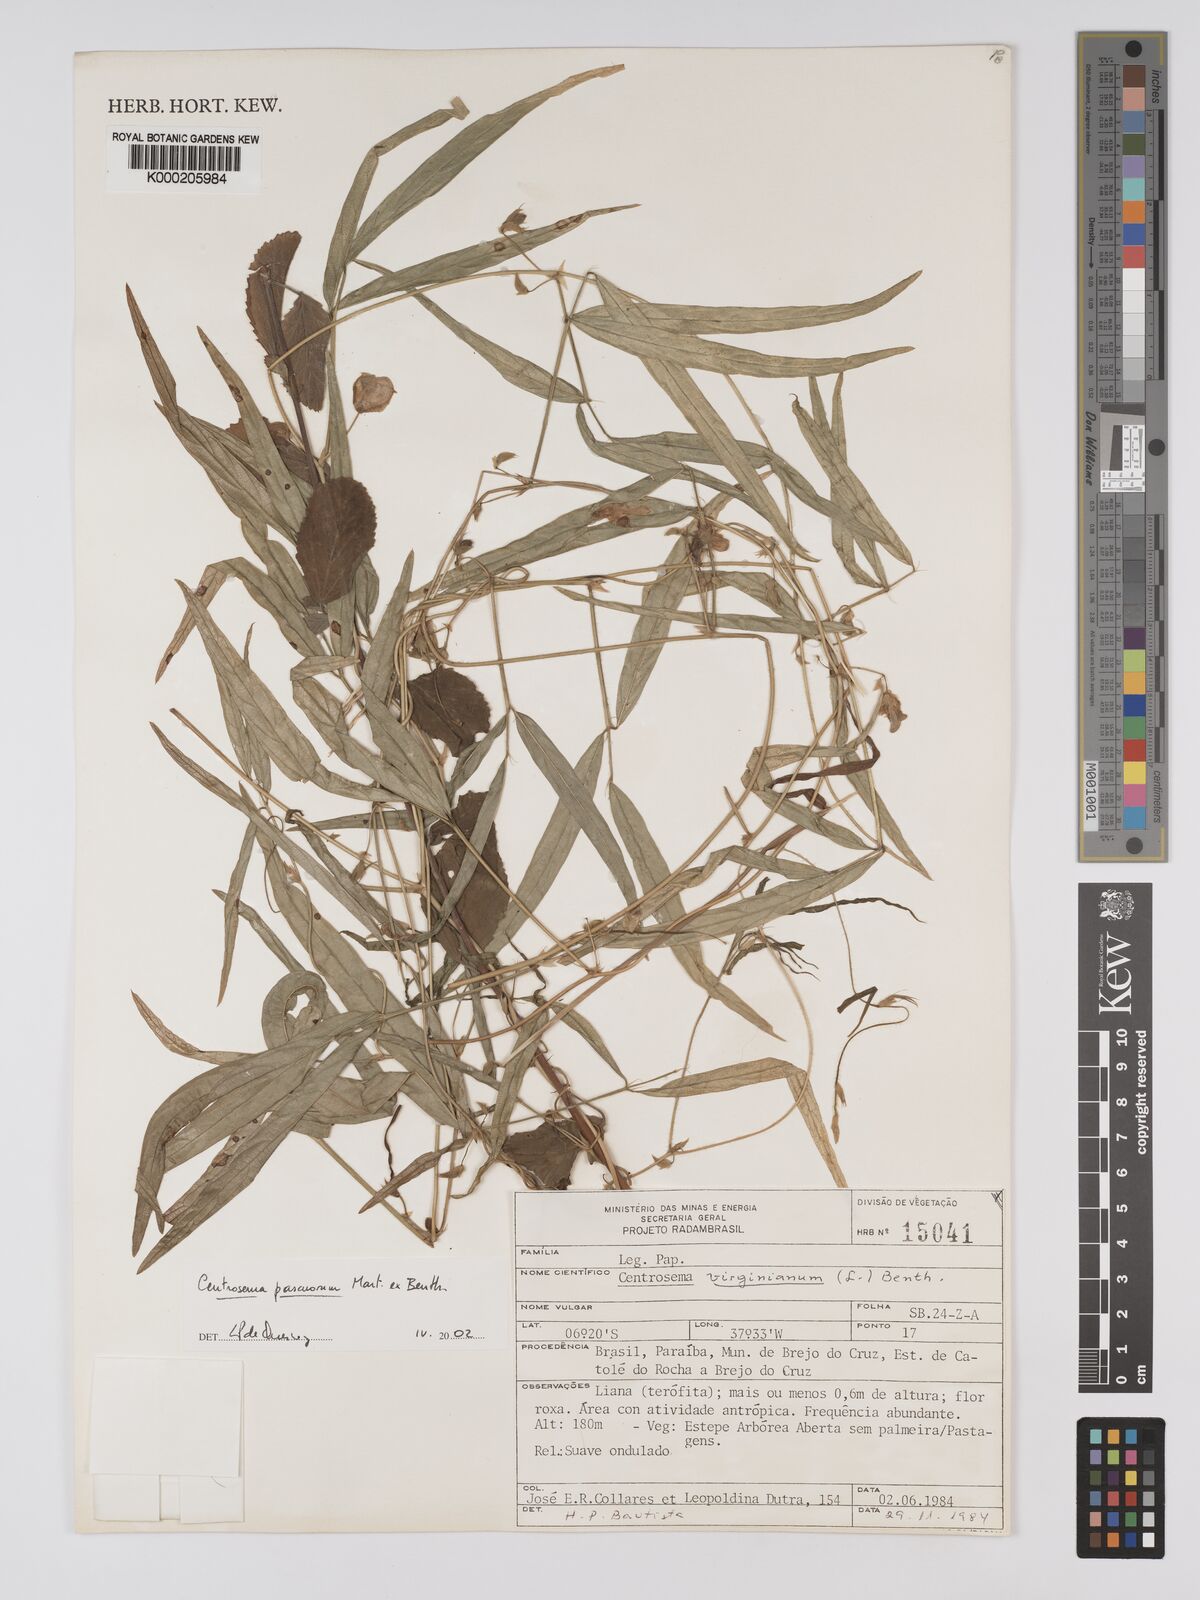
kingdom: Plantae
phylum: Tracheophyta
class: Magnoliopsida
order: Fabales
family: Fabaceae
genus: Centrosema
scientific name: Centrosema pascuorum
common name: Centurion
